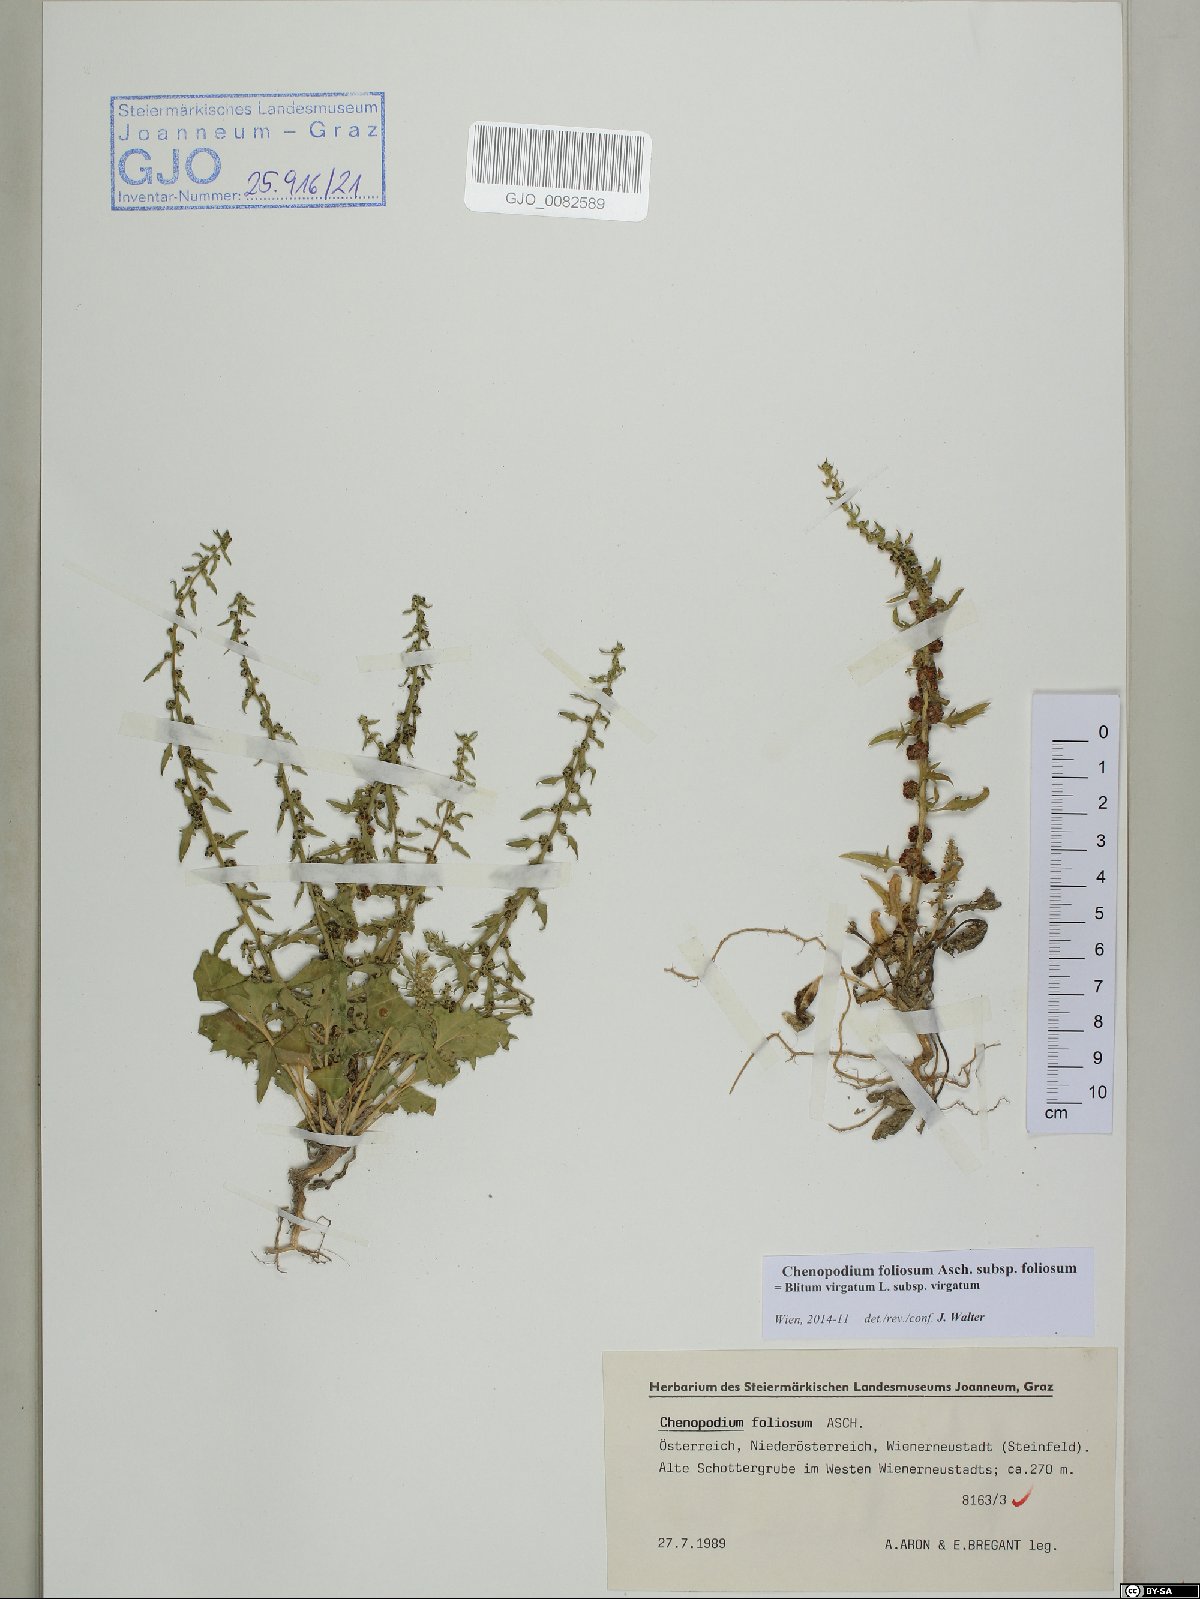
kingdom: Plantae
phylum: Tracheophyta
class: Magnoliopsida
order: Caryophyllales
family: Amaranthaceae
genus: Blitum
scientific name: Blitum virgatum
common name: Strawberry goosefoot
